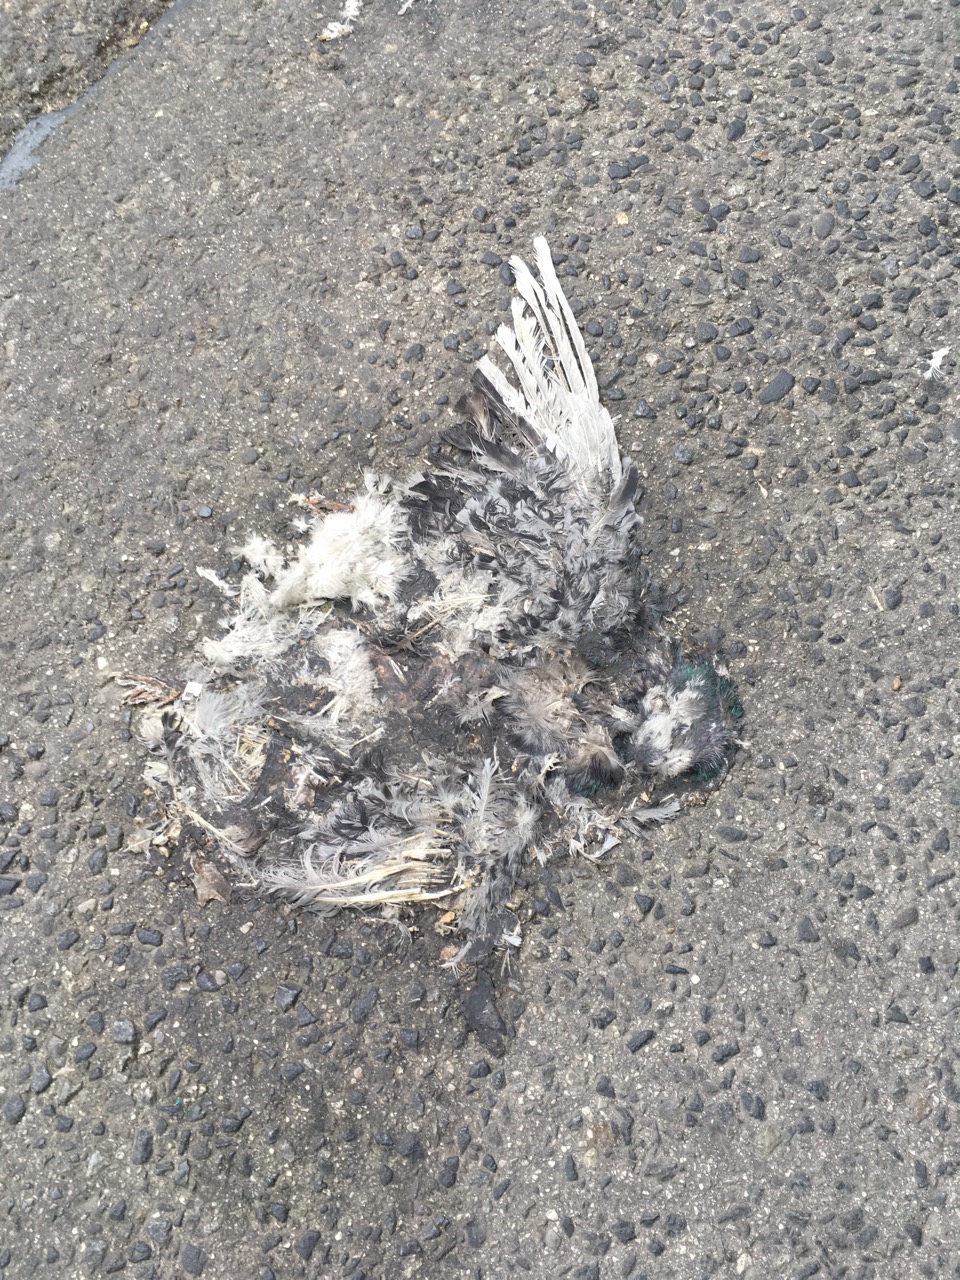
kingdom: Animalia
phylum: Chordata
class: Aves
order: Columbiformes
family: Columbidae
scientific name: Columbidae
